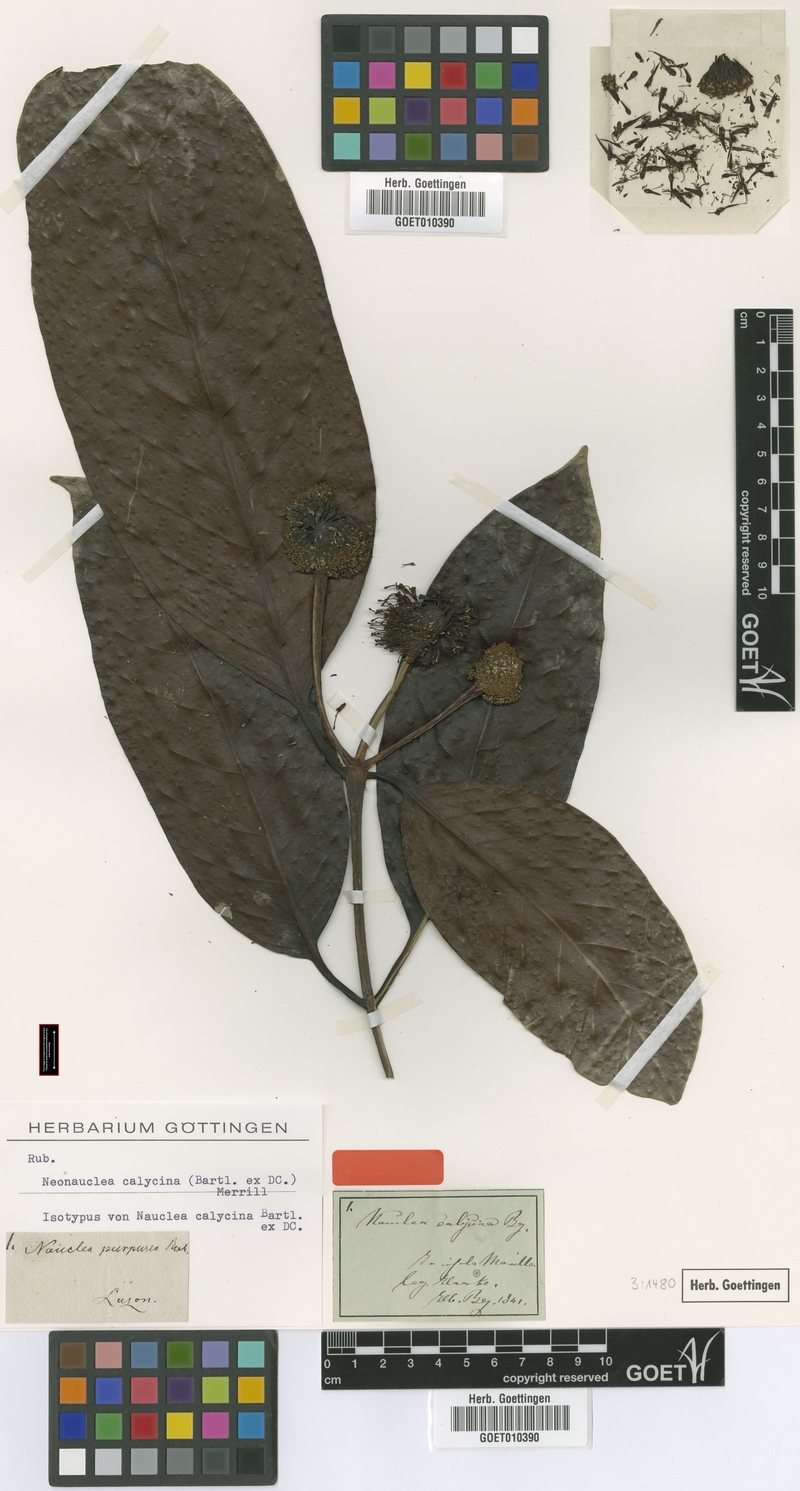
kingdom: Plantae
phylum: Tracheophyta
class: Magnoliopsida
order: Gentianales
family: Rubiaceae
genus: Neonauclea
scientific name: Neonauclea calycina
